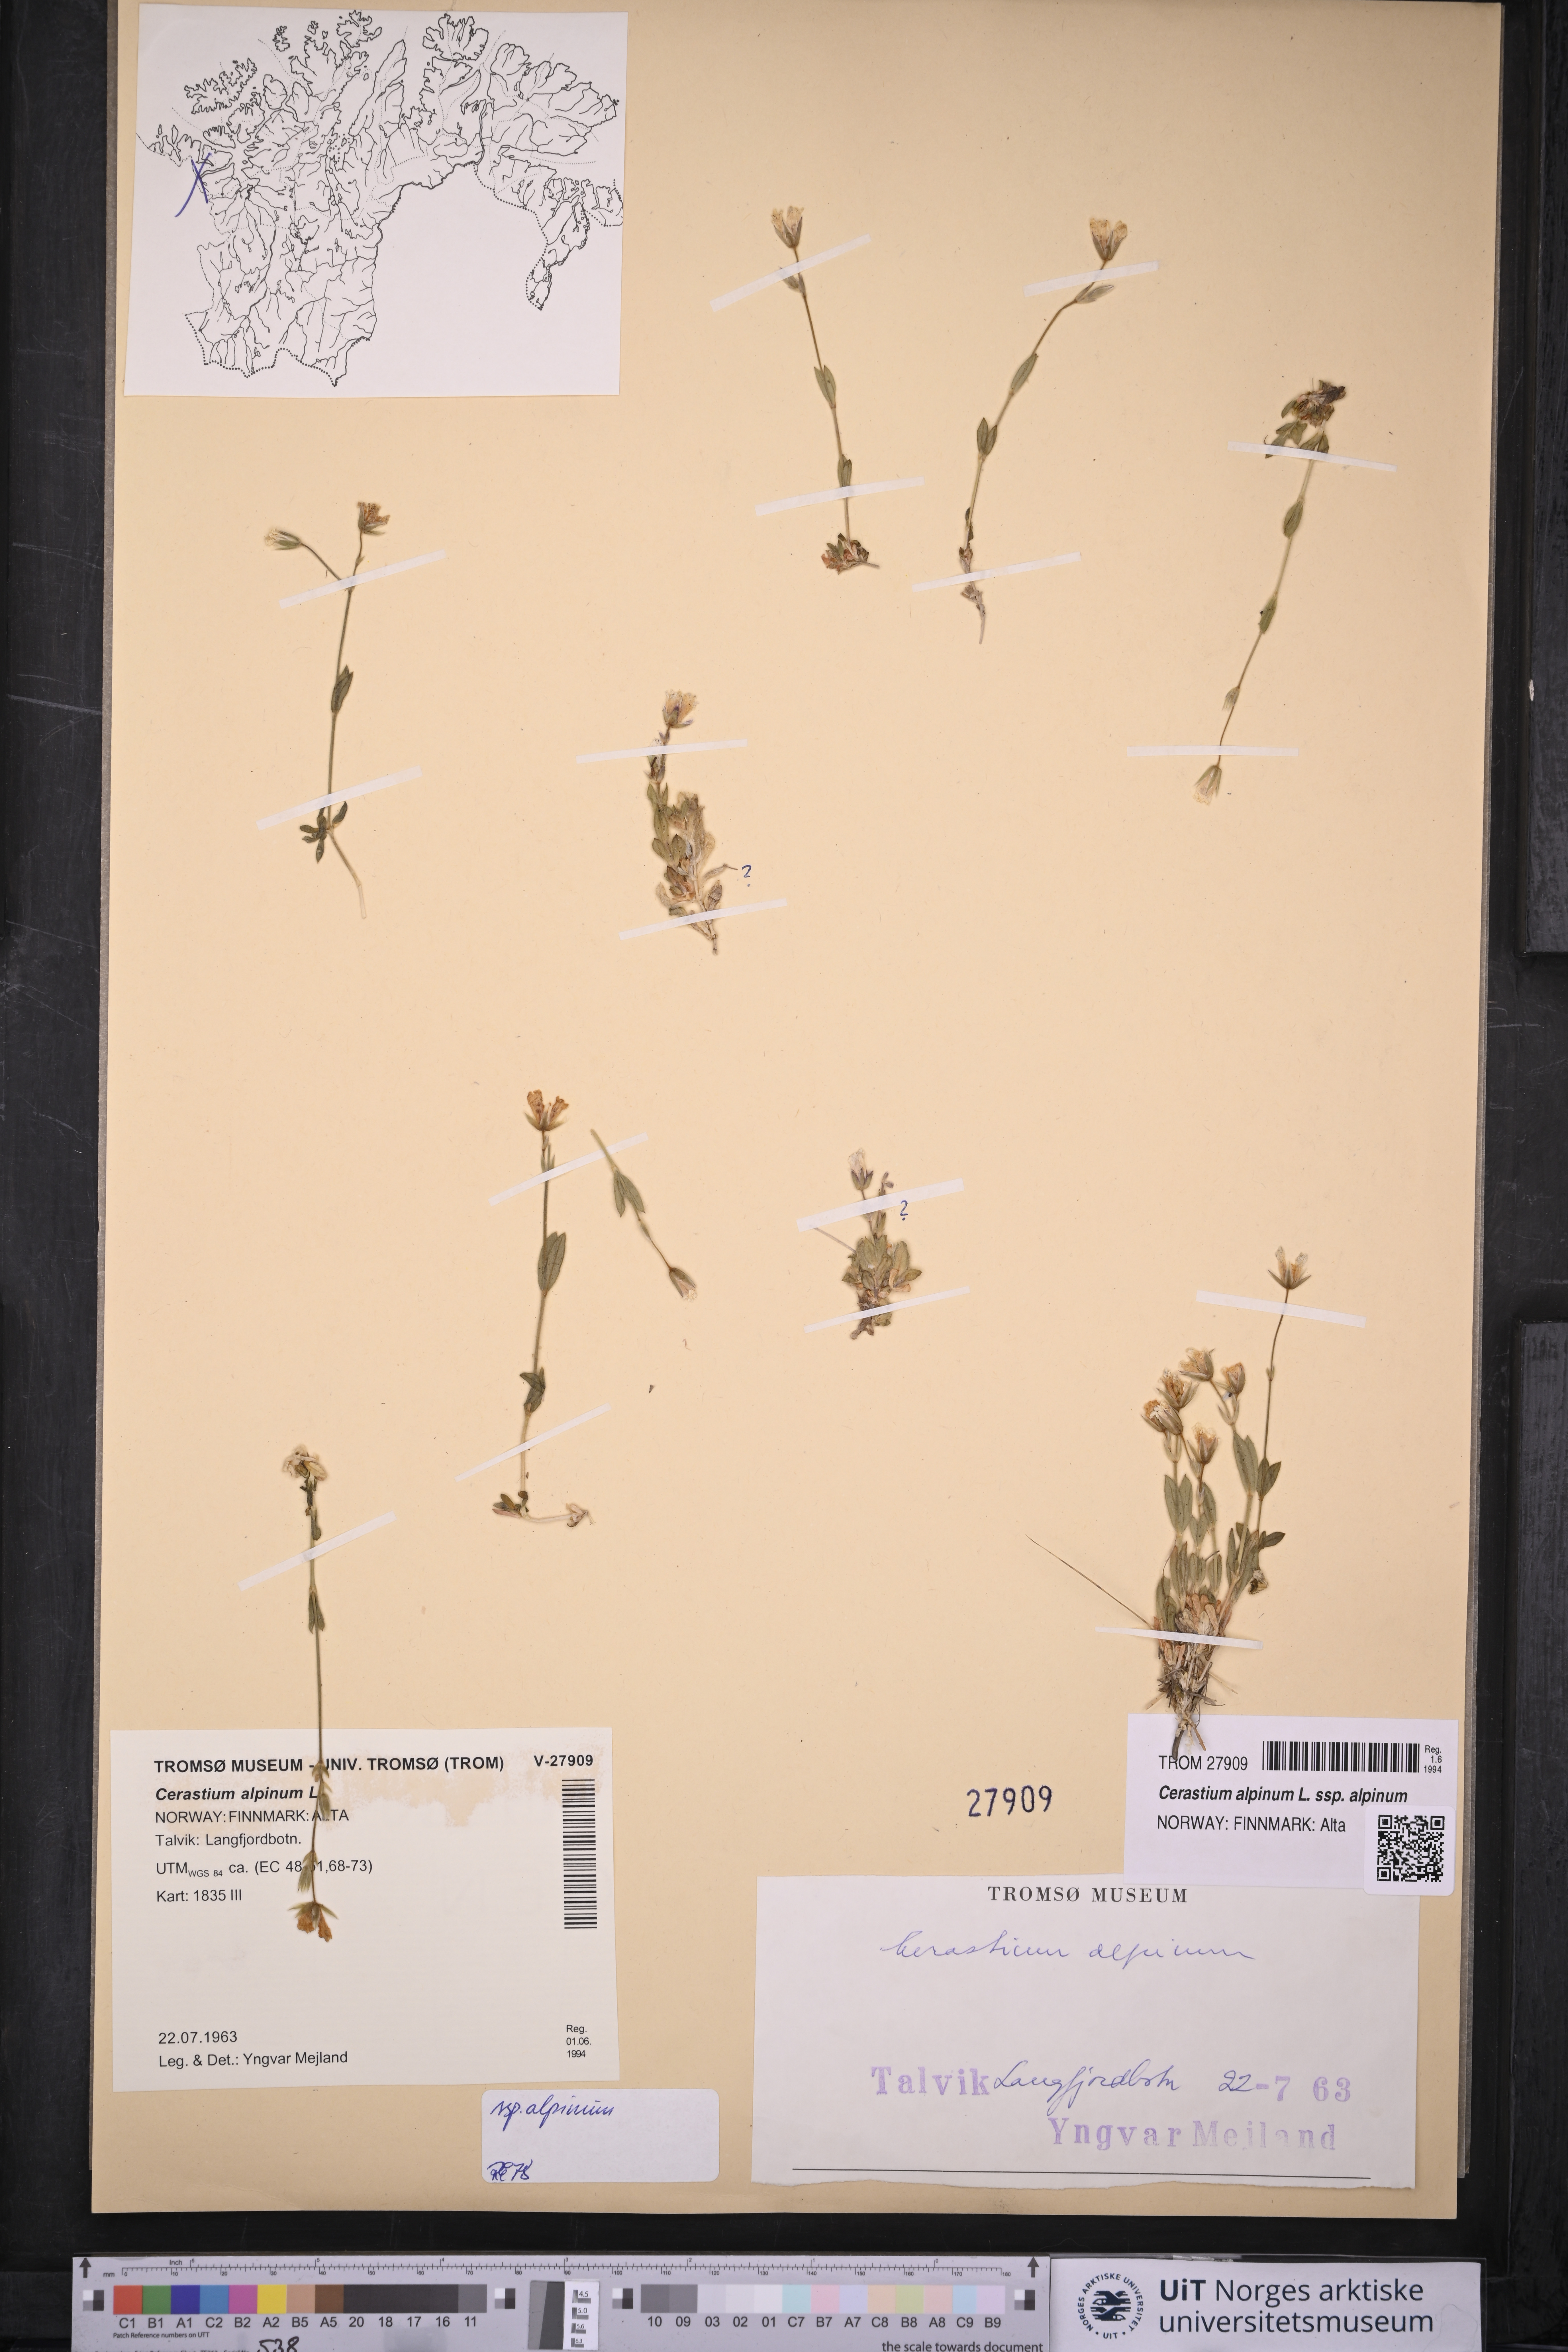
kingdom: Plantae
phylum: Tracheophyta
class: Magnoliopsida
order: Caryophyllales
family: Caryophyllaceae
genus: Cerastium
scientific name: Cerastium alpinum
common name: Alpine mouse-ear
